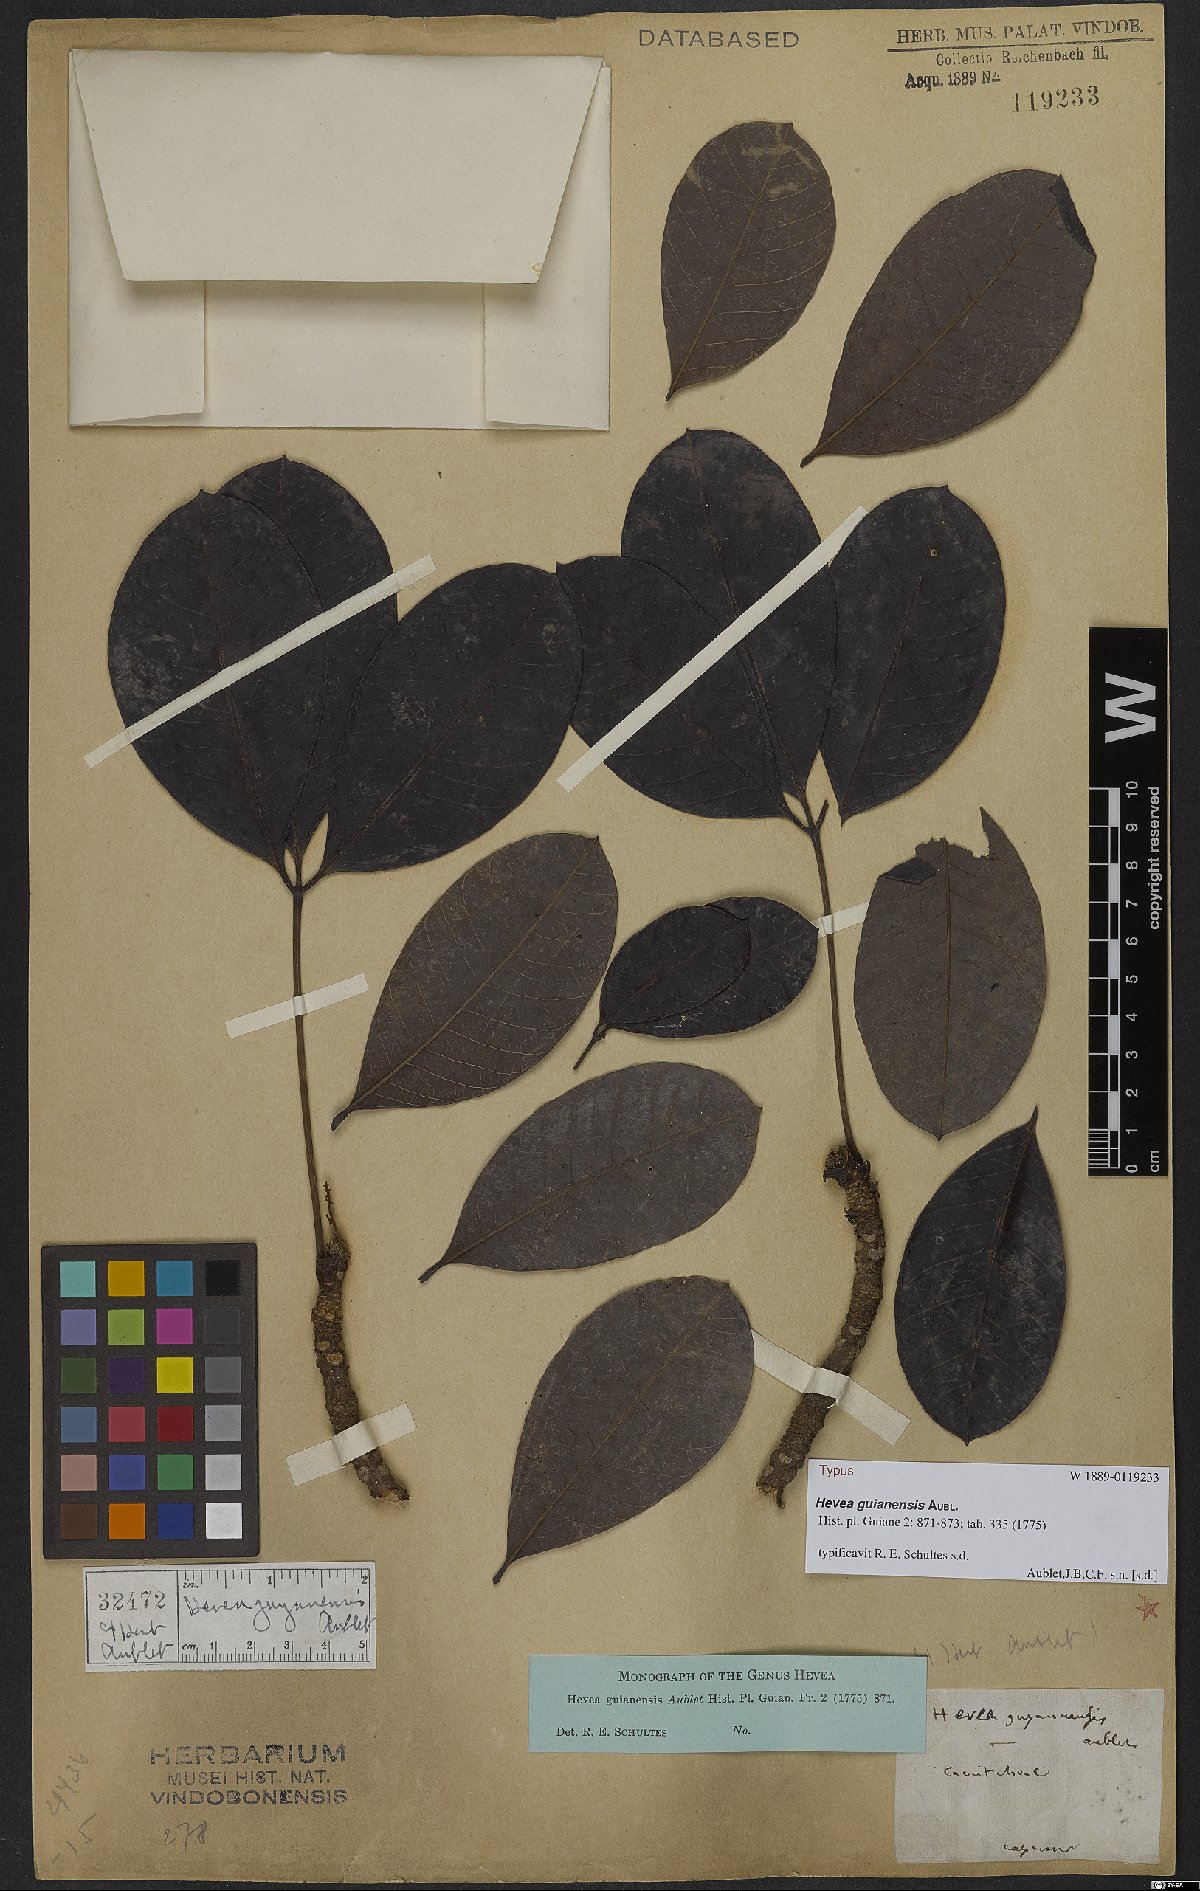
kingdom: Plantae
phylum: Tracheophyta
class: Magnoliopsida
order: Malpighiales
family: Euphorbiaceae
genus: Hevea
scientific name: Hevea guianensis
